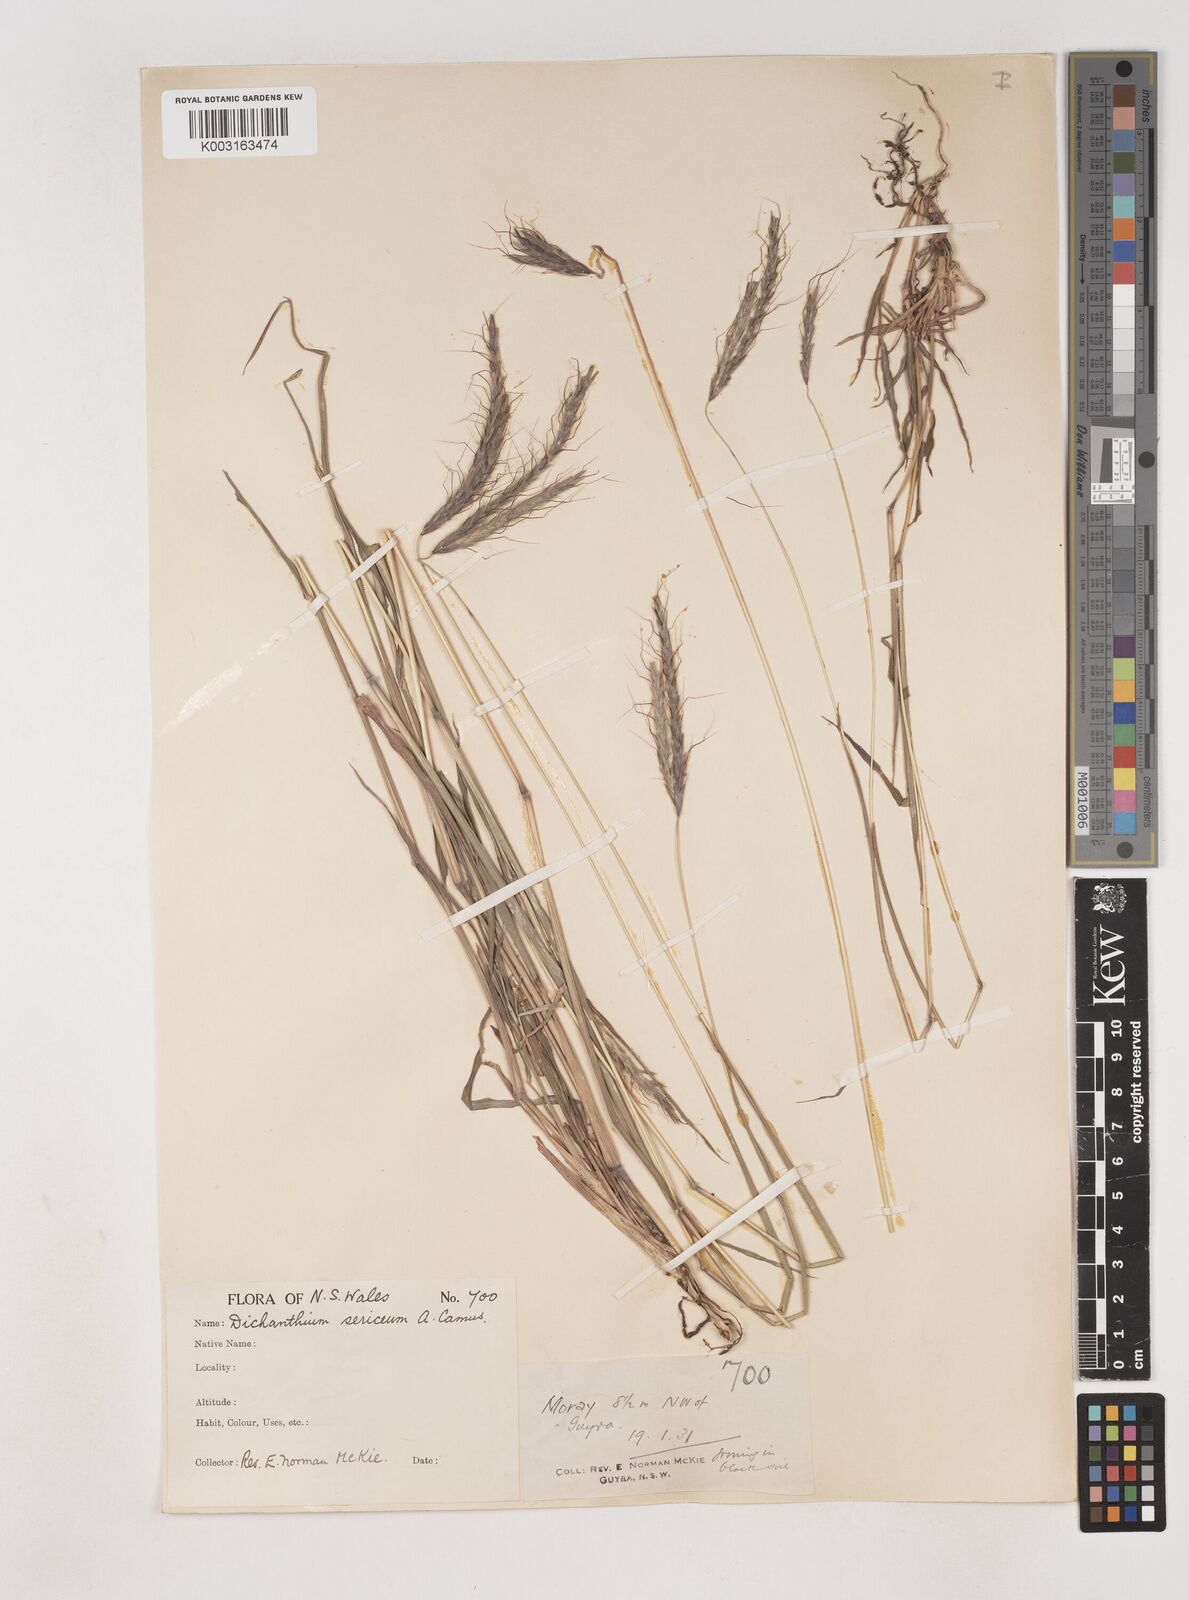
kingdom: Plantae
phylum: Tracheophyta
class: Liliopsida
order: Poales
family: Poaceae
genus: Dichanthium
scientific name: Dichanthium setosum
